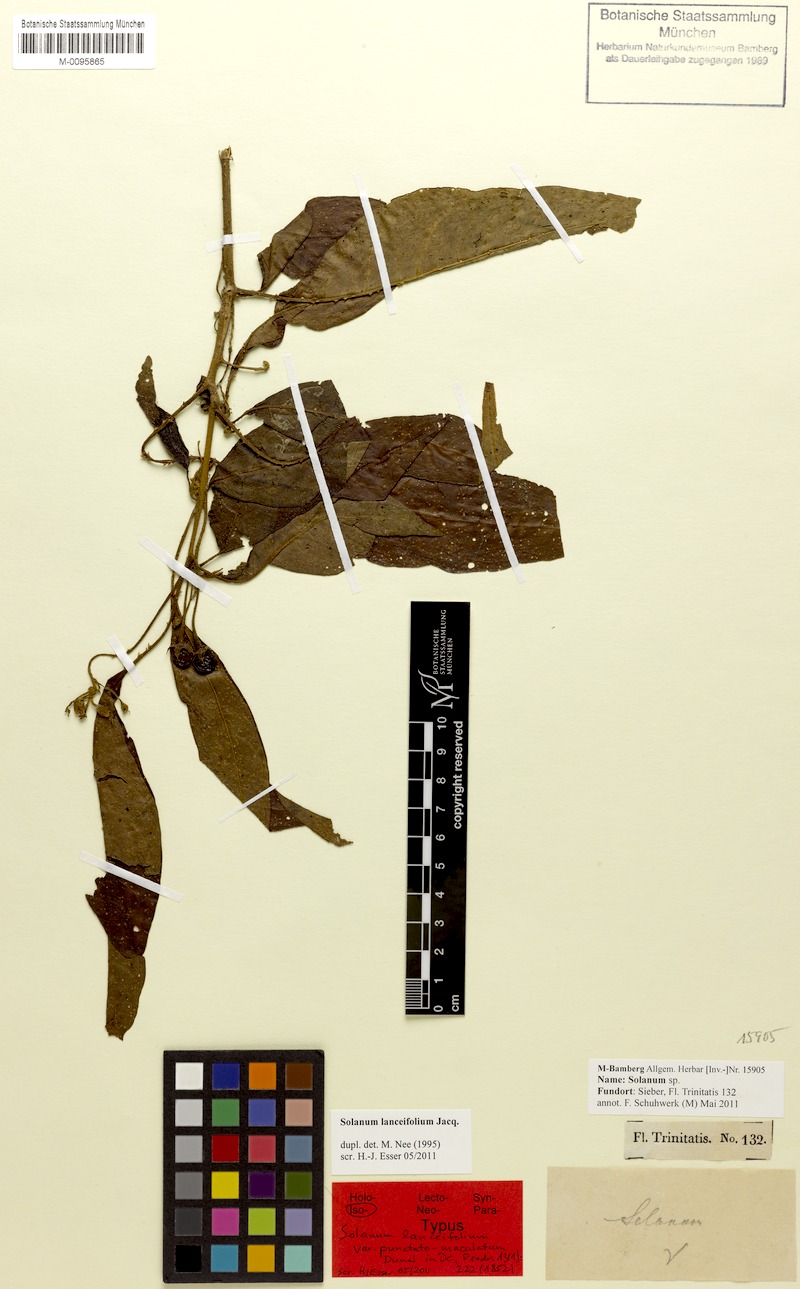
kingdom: Plantae
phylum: Tracheophyta
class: Magnoliopsida
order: Solanales
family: Solanaceae
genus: Solanum
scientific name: Solanum lanceifolium
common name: Lanceleaf nightshade
